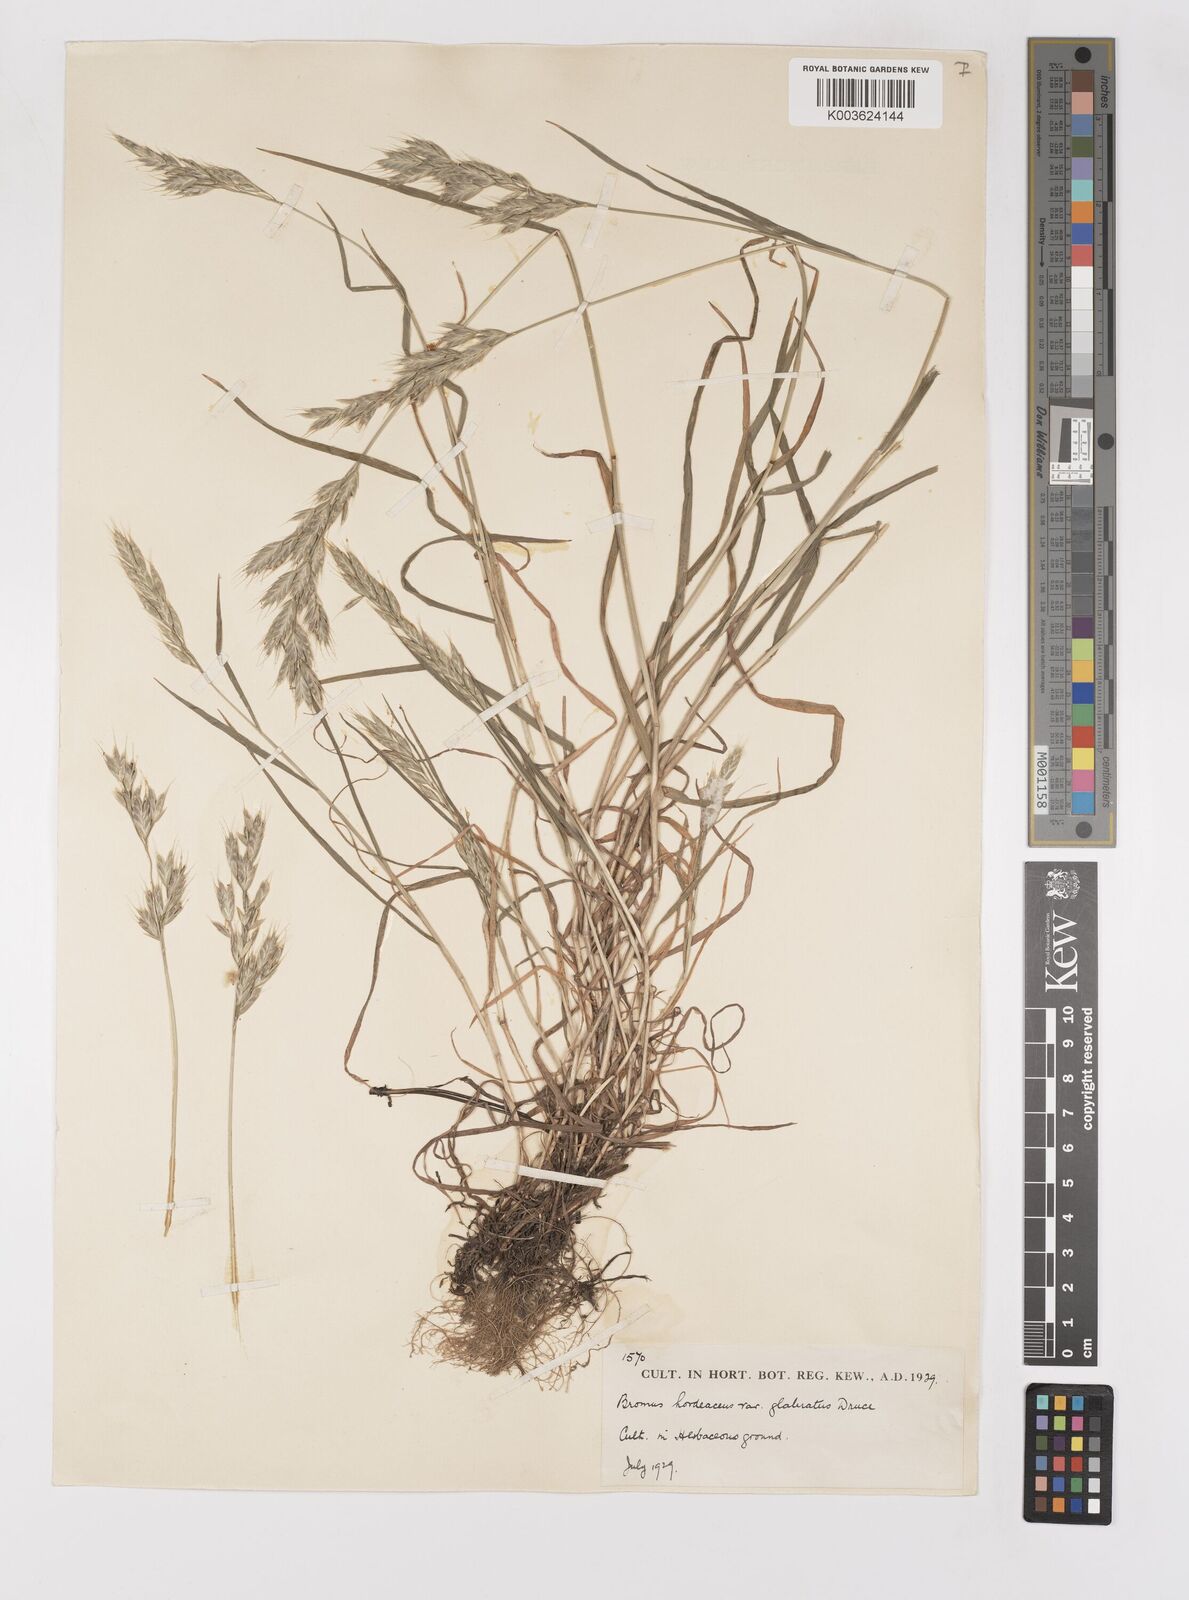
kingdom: Plantae
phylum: Tracheophyta
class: Liliopsida
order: Poales
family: Poaceae
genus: Bromus
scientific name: Bromus hordeaceus
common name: Soft brome
